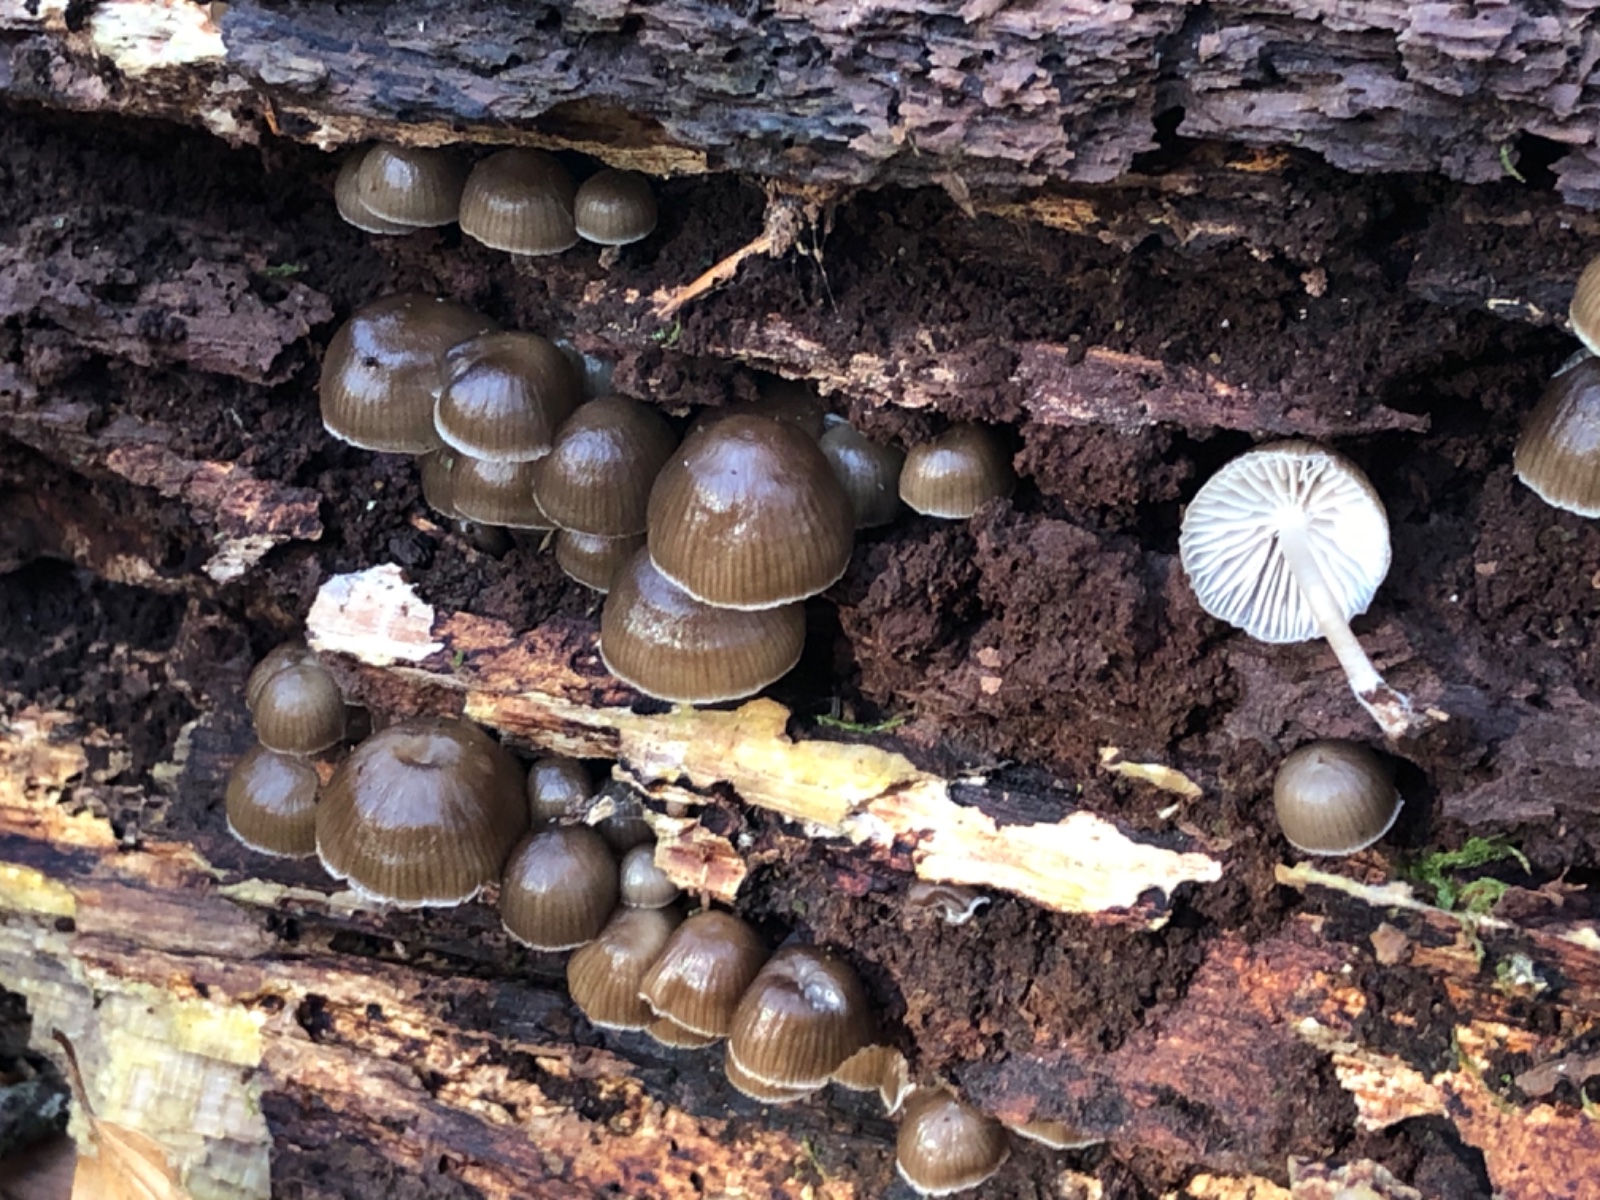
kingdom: Fungi
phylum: Basidiomycota
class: Agaricomycetes
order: Agaricales
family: Mycenaceae
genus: Mycena
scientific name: Mycena tintinnabulum
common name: vinter-huesvamp
